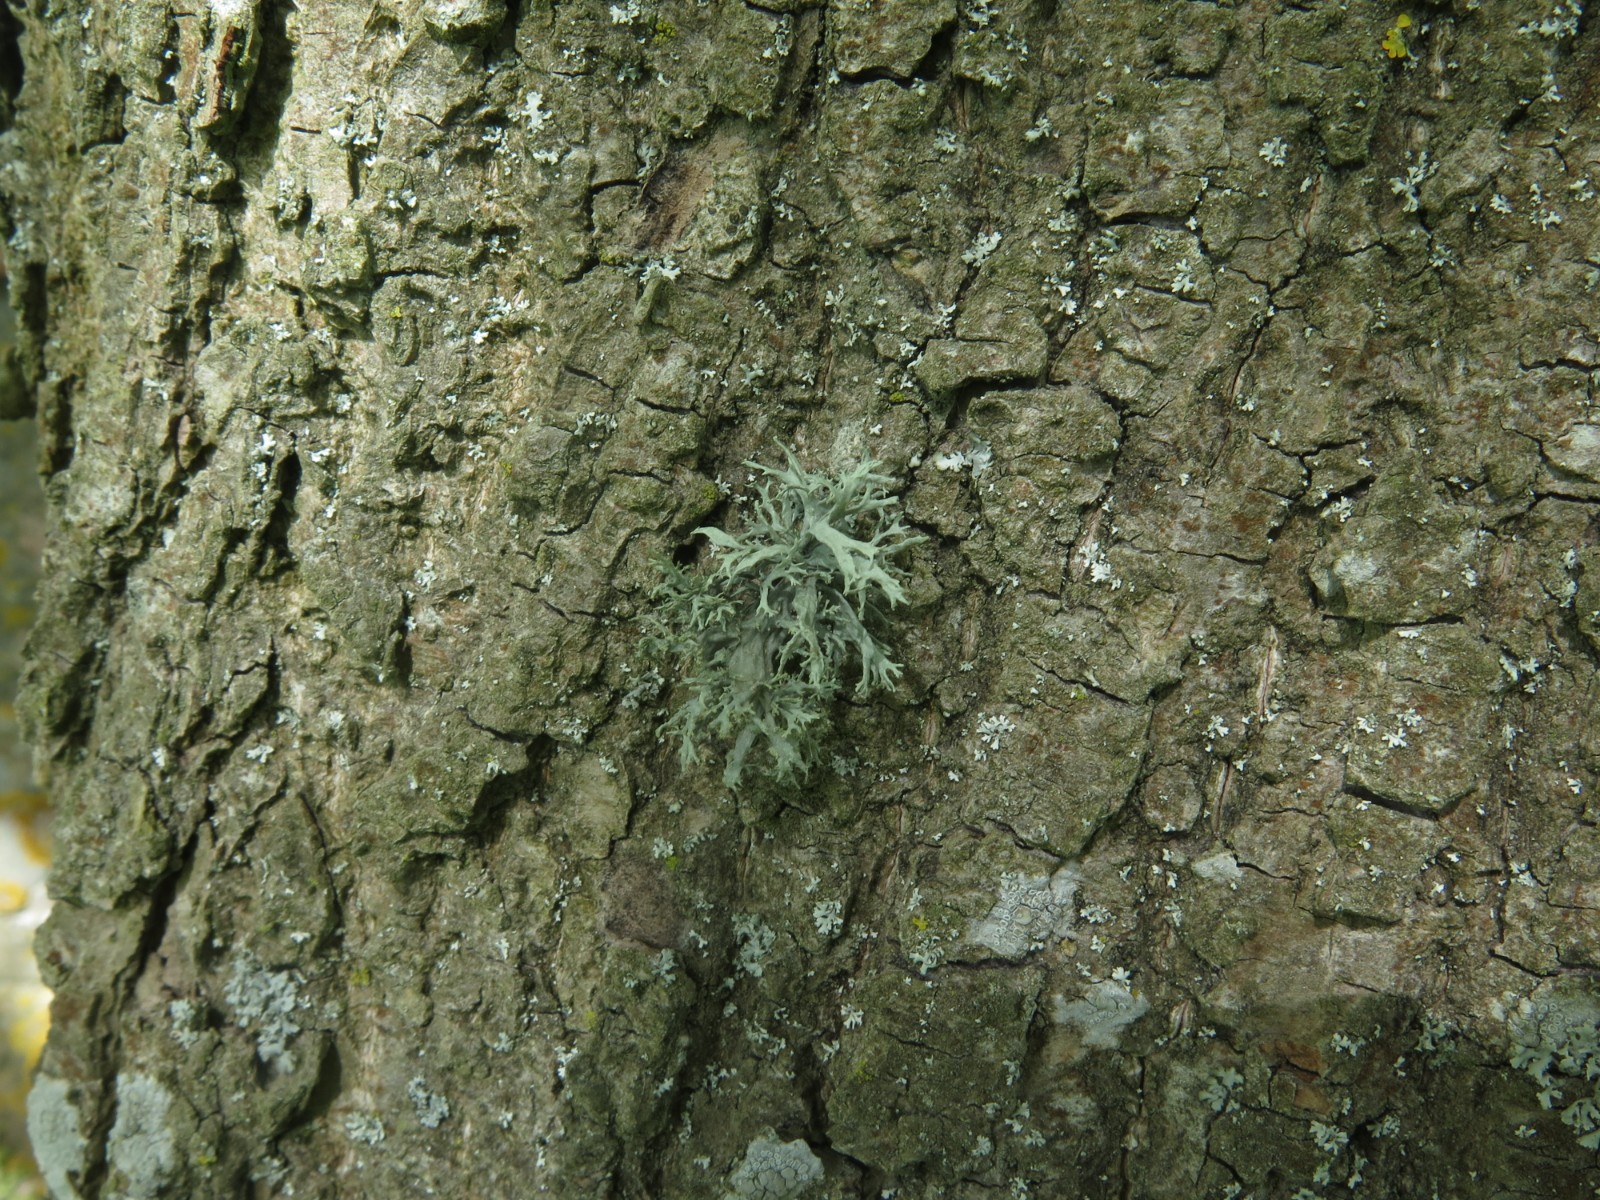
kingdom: Fungi
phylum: Ascomycota
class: Lecanoromycetes
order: Lecanorales
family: Parmeliaceae
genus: Evernia
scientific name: Evernia prunastri
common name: almindelig slåenlav
